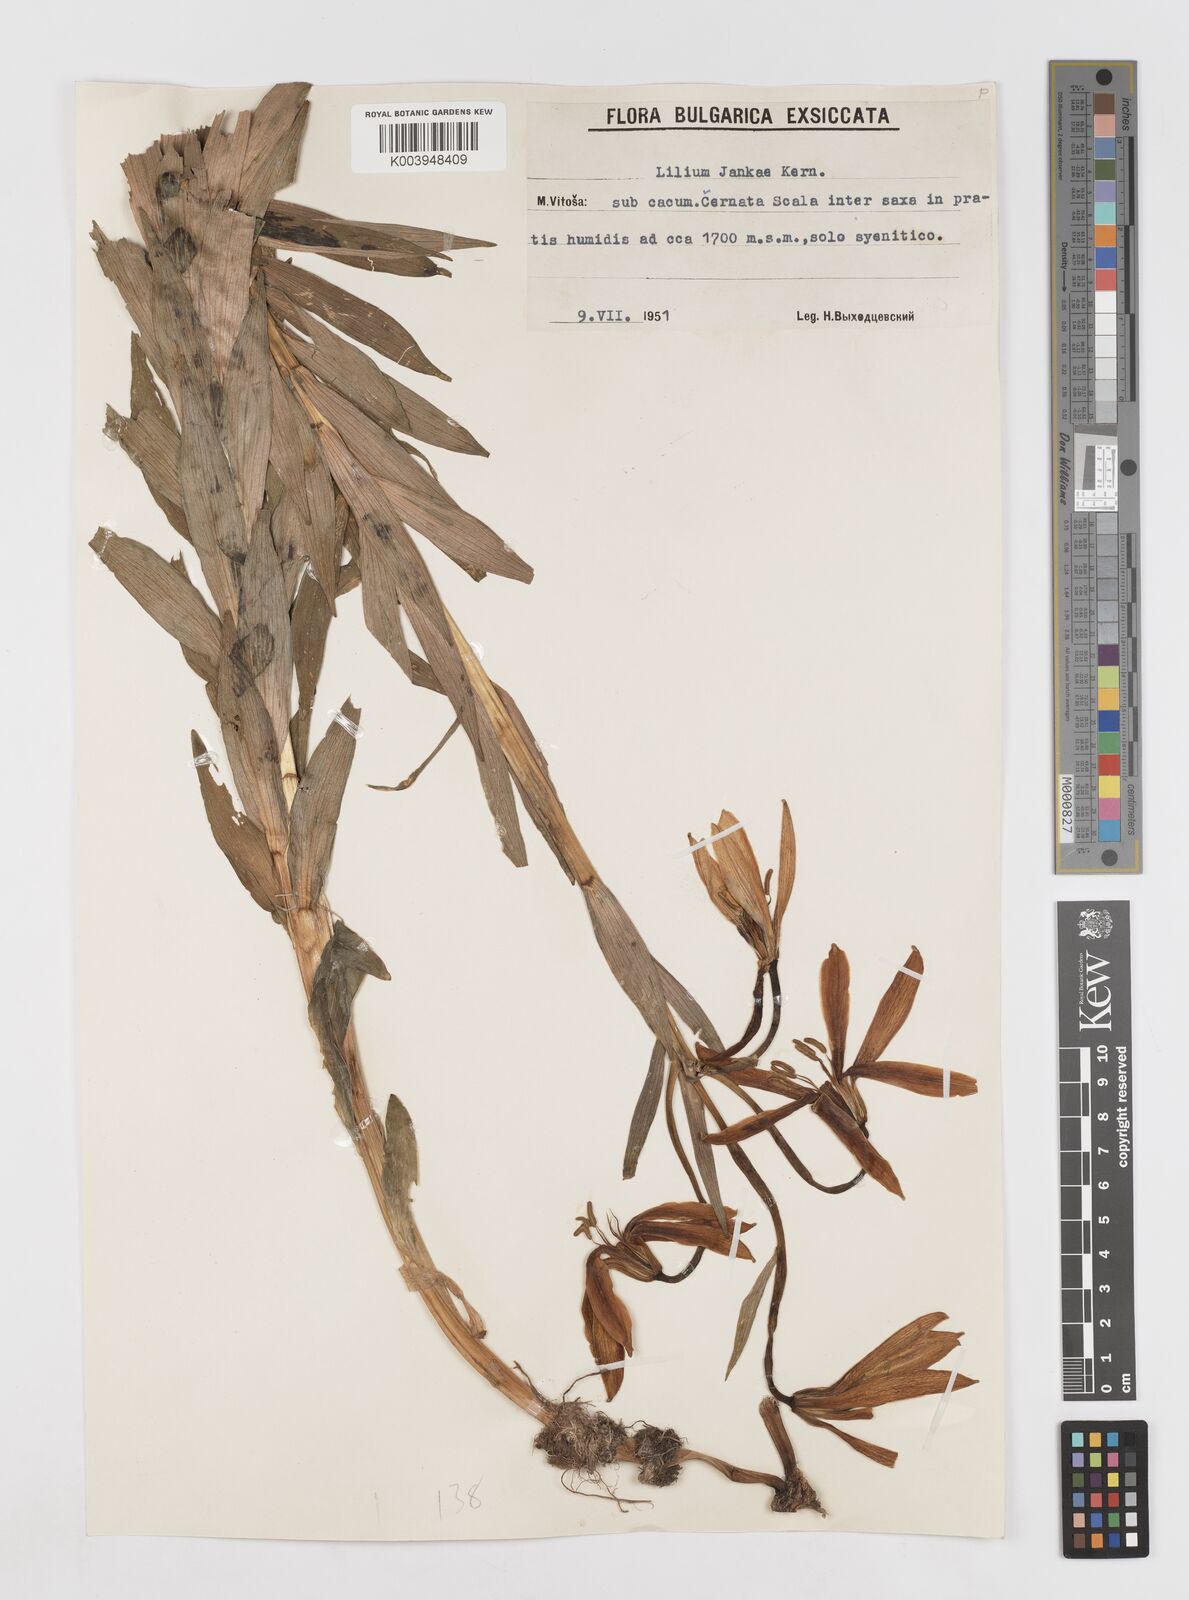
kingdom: Plantae
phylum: Tracheophyta
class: Liliopsida
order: Liliales
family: Liliaceae
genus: Lilium
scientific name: Lilium jankae
